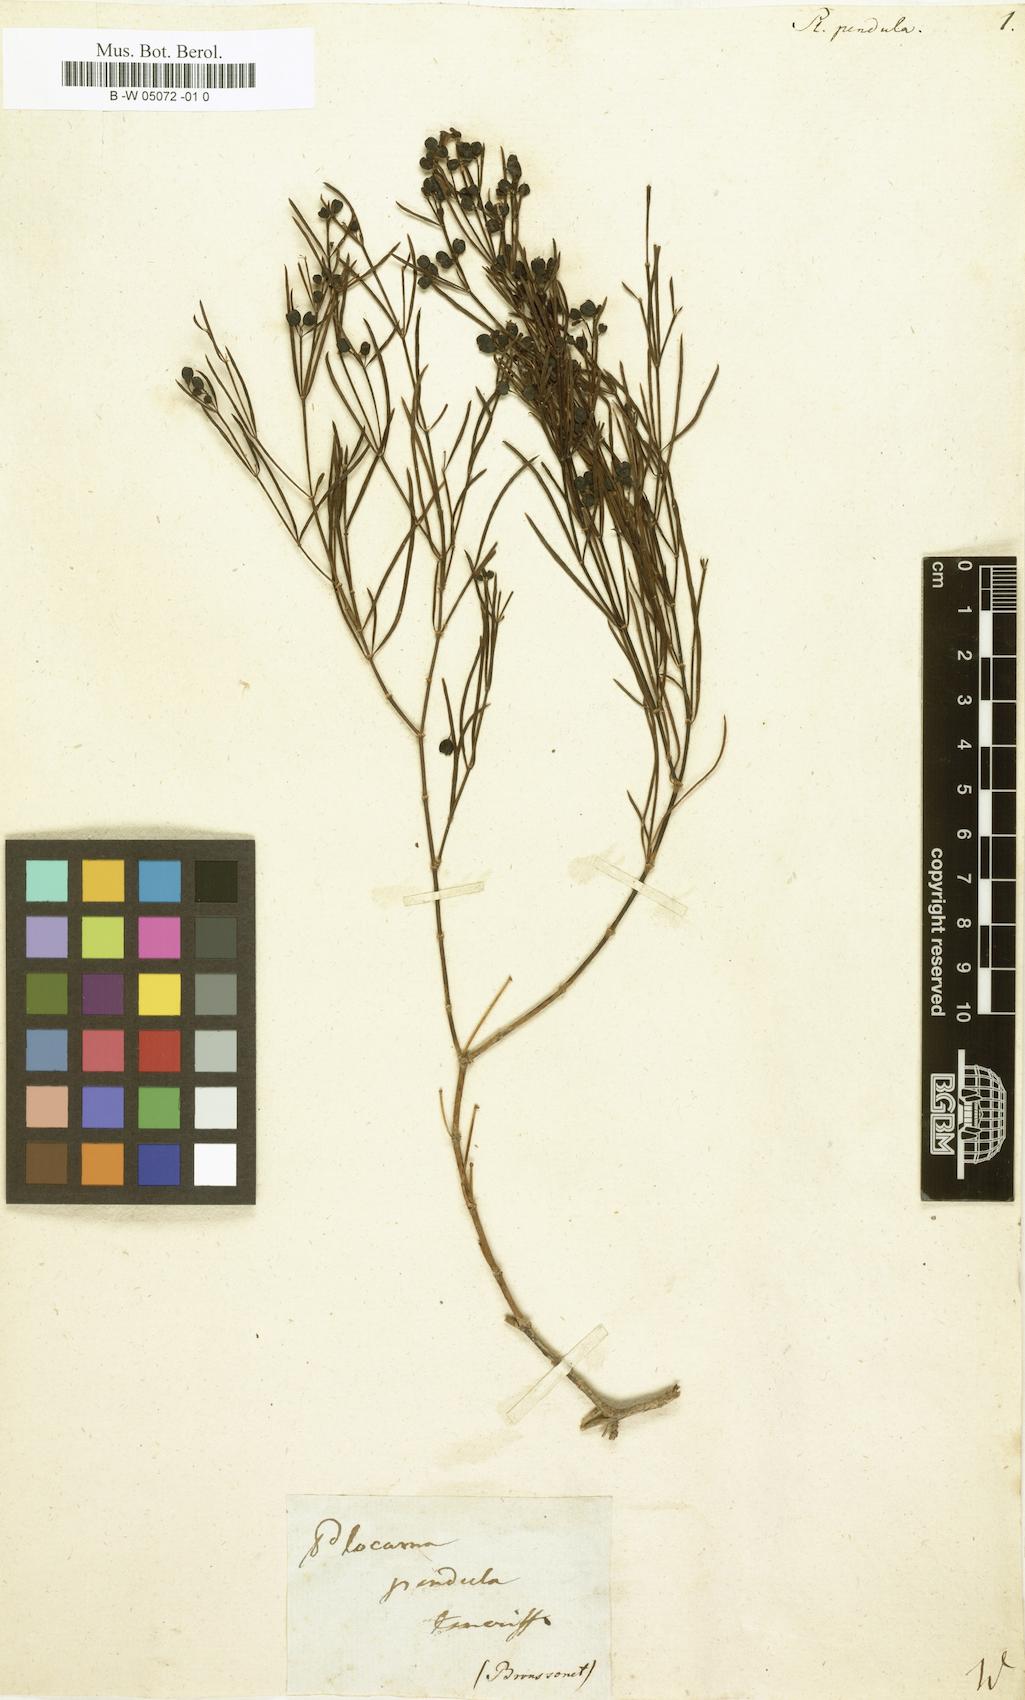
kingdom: Plantae
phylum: Tracheophyta
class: Magnoliopsida
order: Gentianales
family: Rubiaceae
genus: Plocama
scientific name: Plocama pendula
